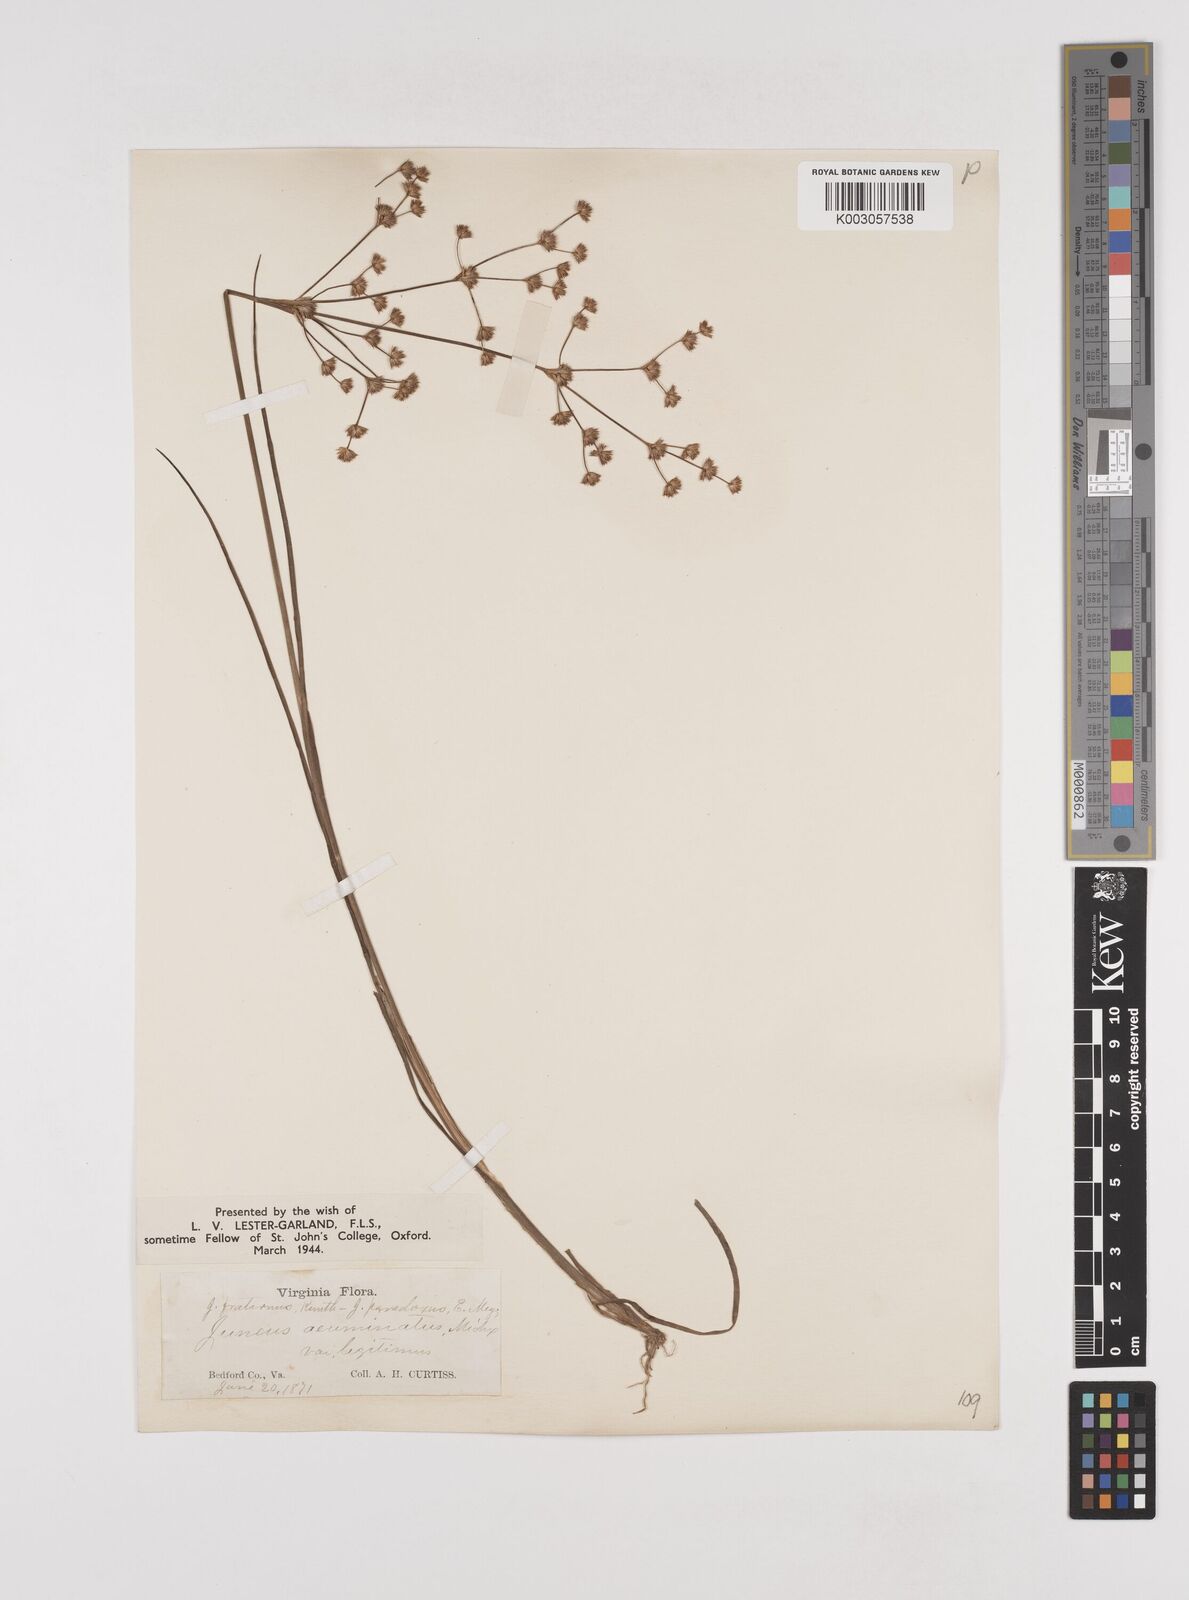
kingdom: Plantae
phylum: Tracheophyta
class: Liliopsida
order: Poales
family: Juncaceae
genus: Juncus
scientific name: Juncus acuminatus
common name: Knotty-leaved rush
